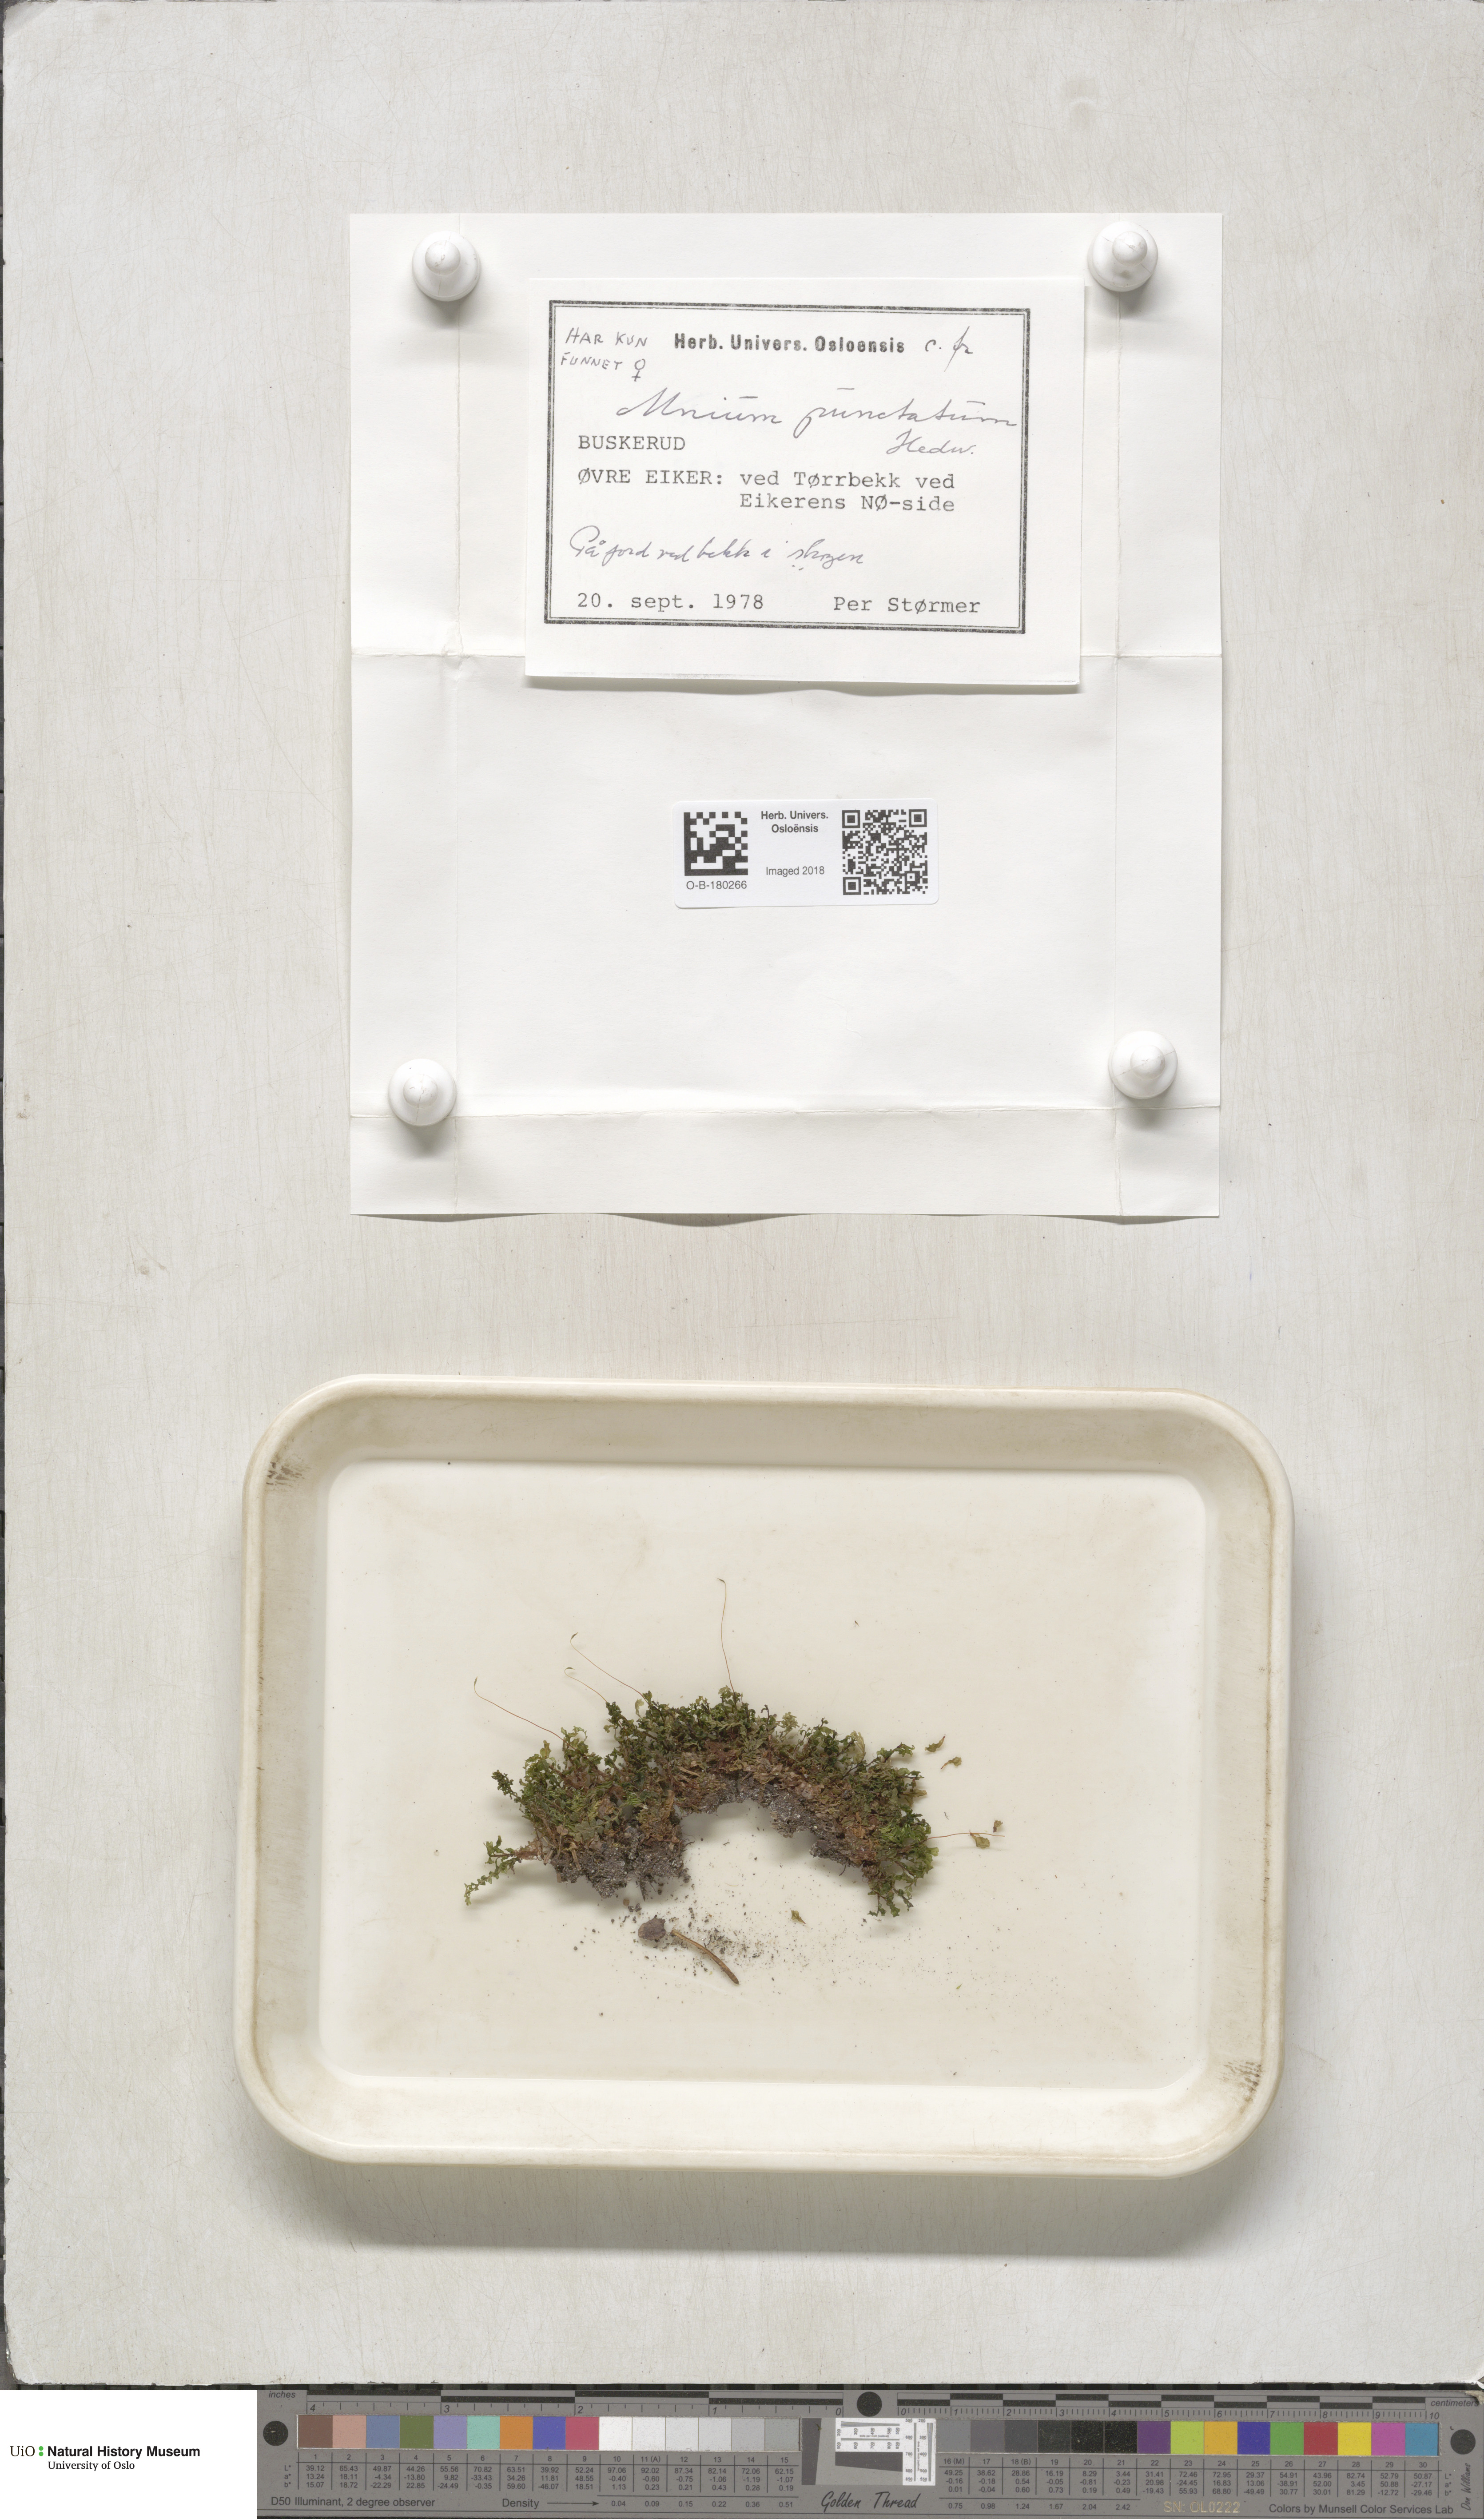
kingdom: Plantae
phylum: Bryophyta
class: Bryopsida
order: Bryales
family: Mniaceae
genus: Rhizomnium
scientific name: Rhizomnium punctatum
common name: Dotted leafy moss
